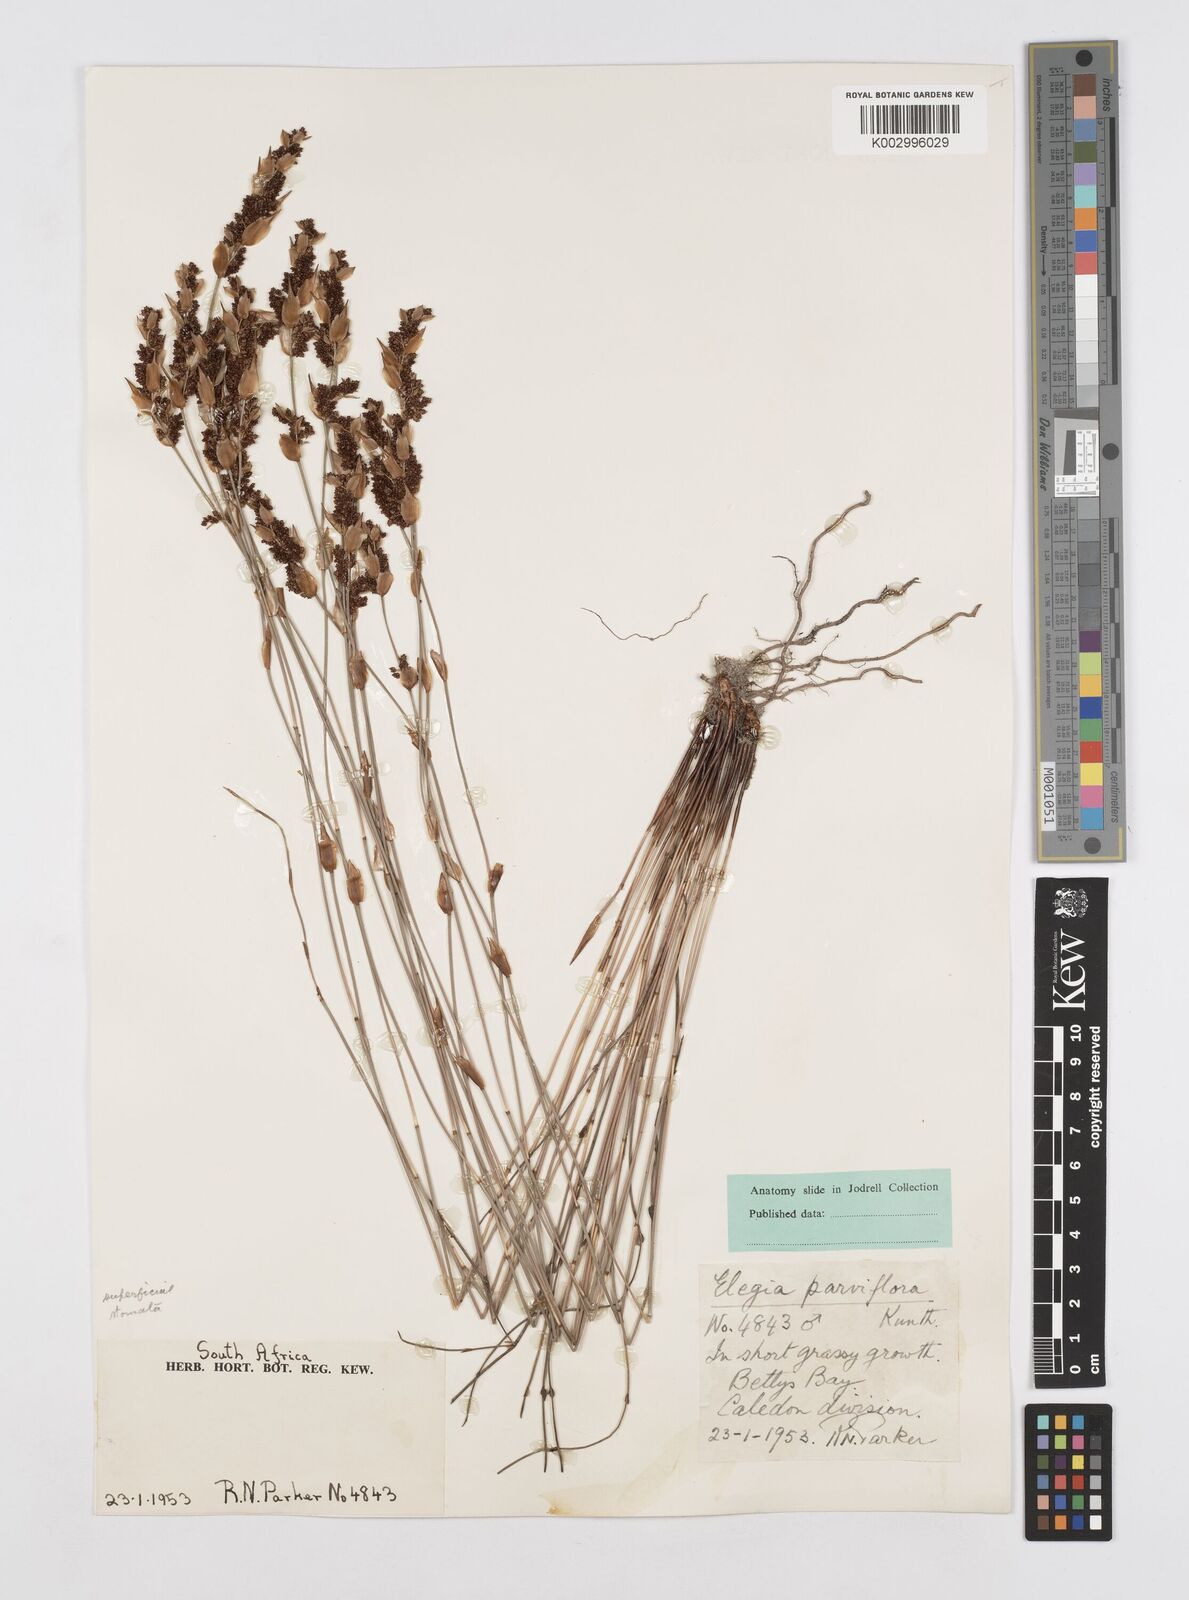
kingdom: Plantae
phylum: Tracheophyta
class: Liliopsida
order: Poales
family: Restionaceae
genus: Cannomois
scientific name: Cannomois parviflora
